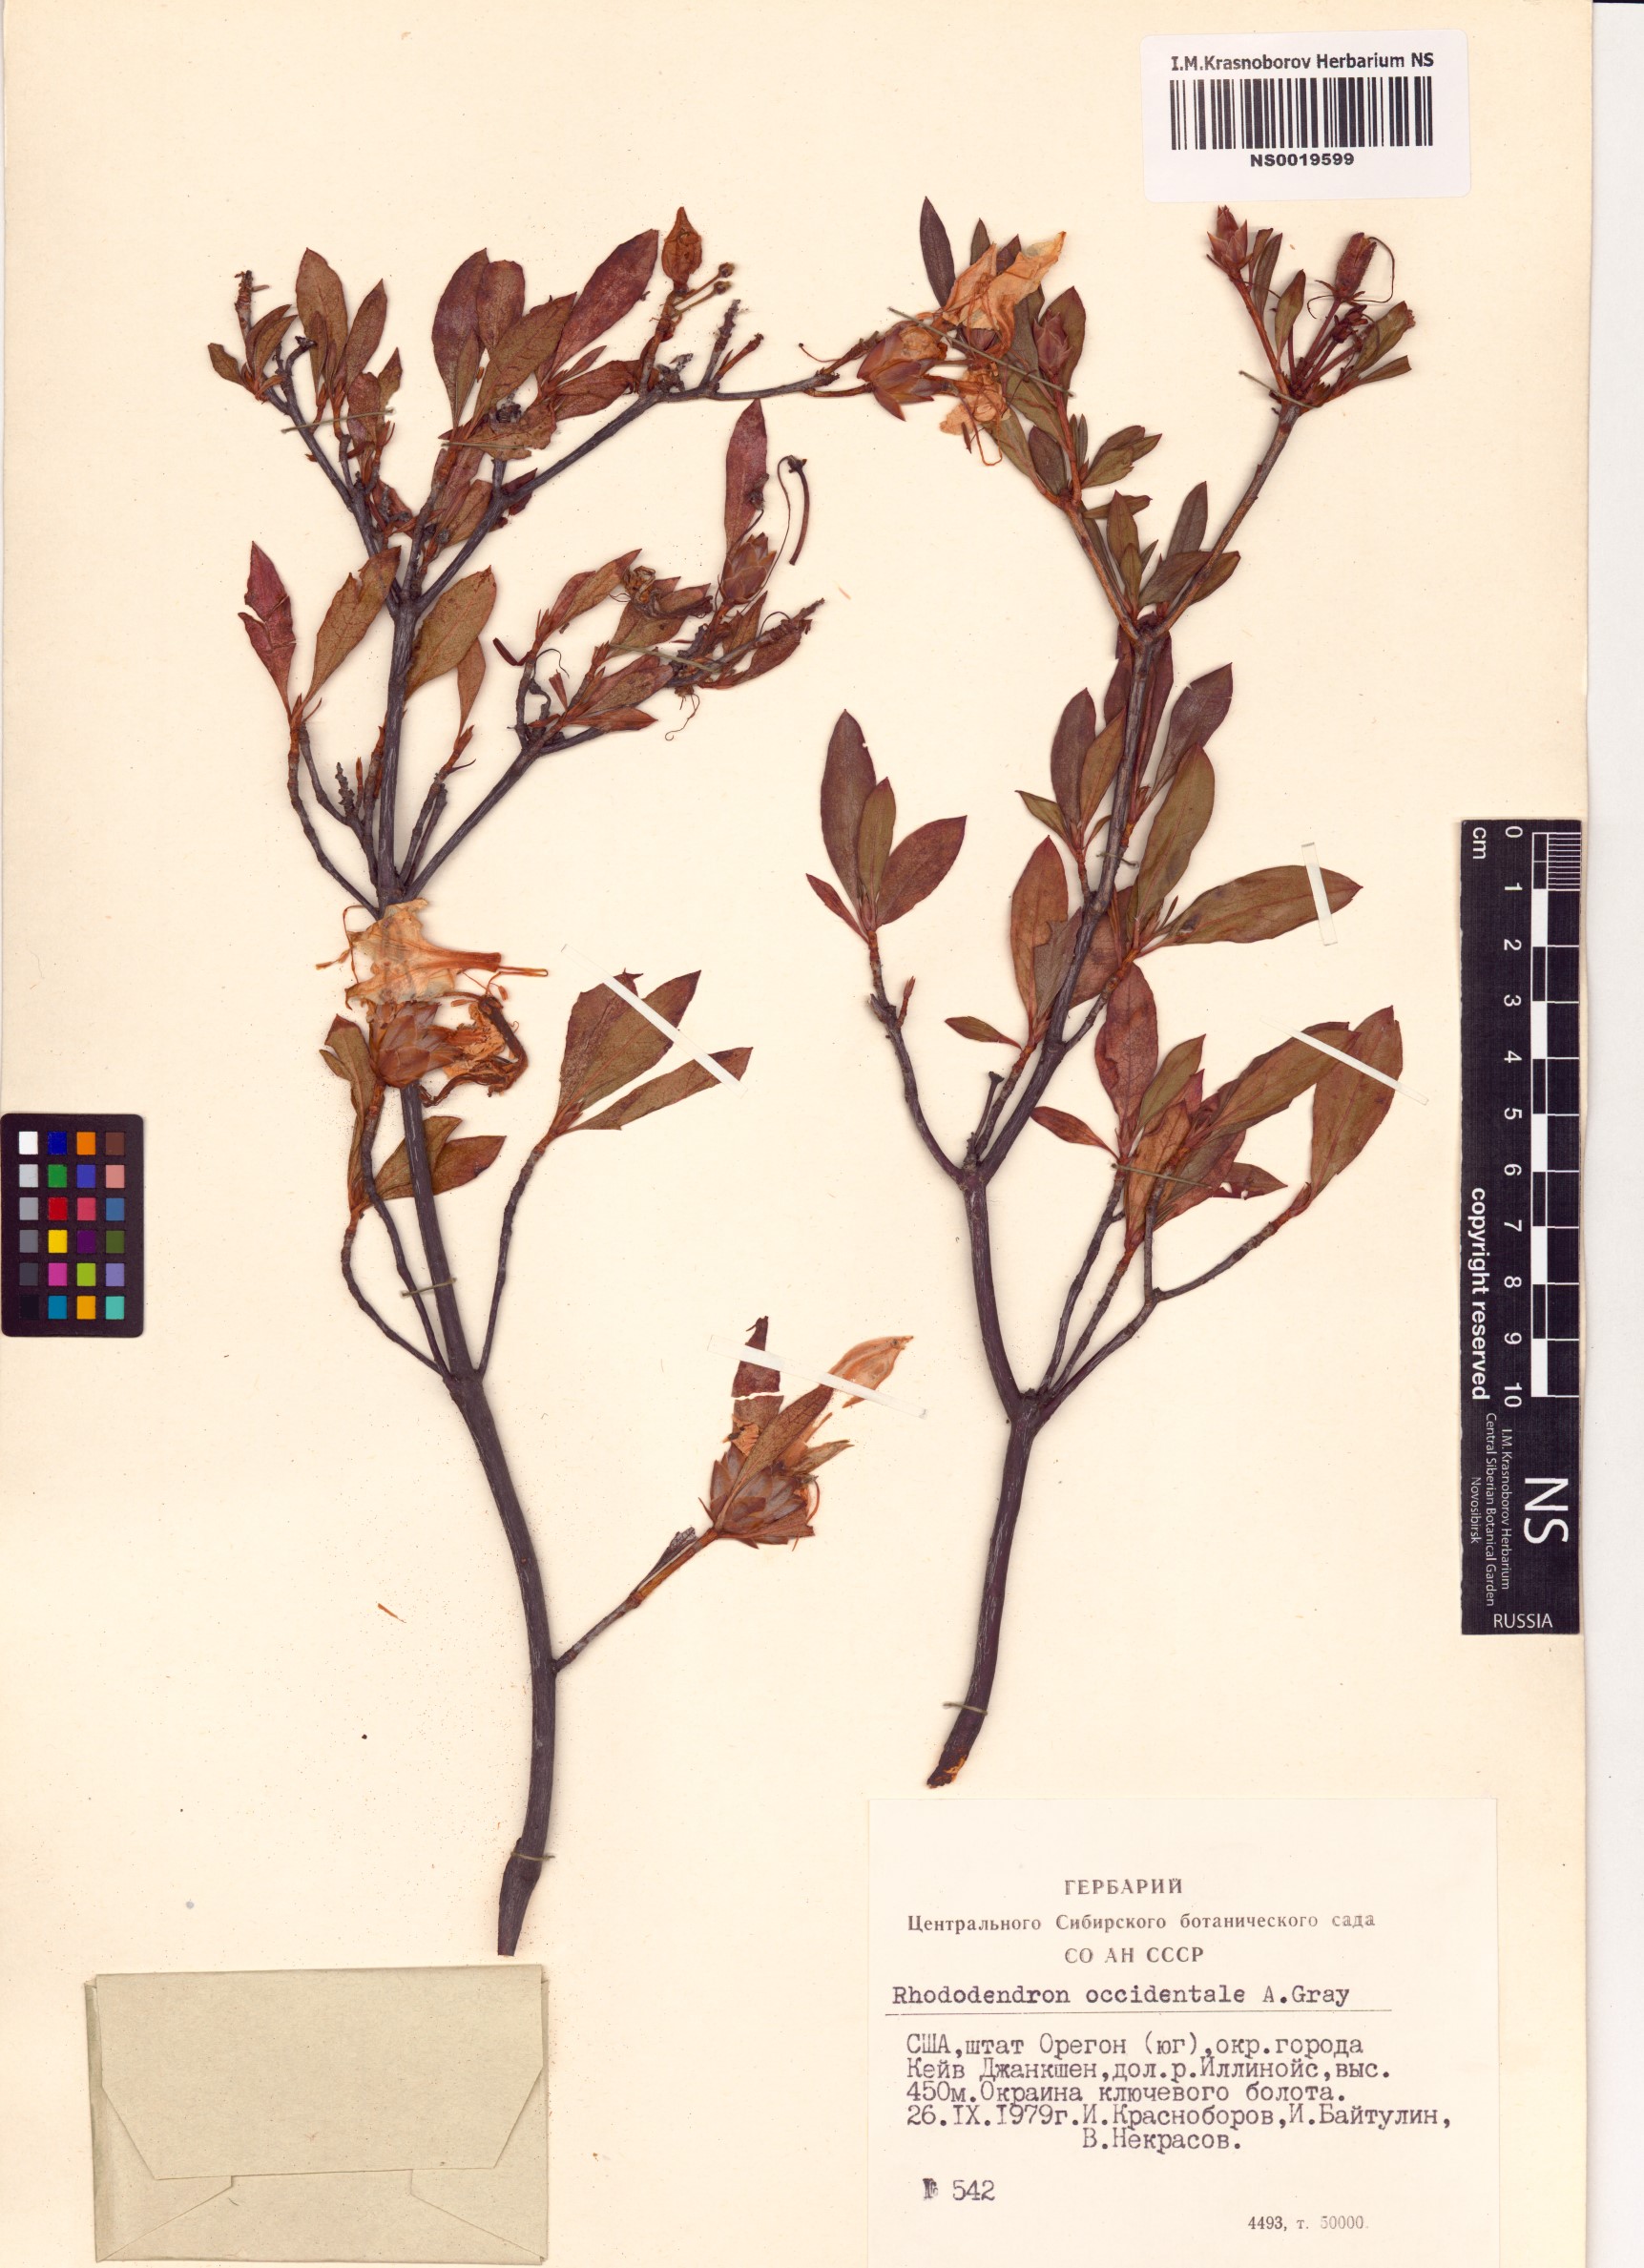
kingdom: Plantae
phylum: Tracheophyta
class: Magnoliopsida
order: Ericales
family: Ericaceae
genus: Rhododendron
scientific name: Rhododendron occidentale
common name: Western azalea
